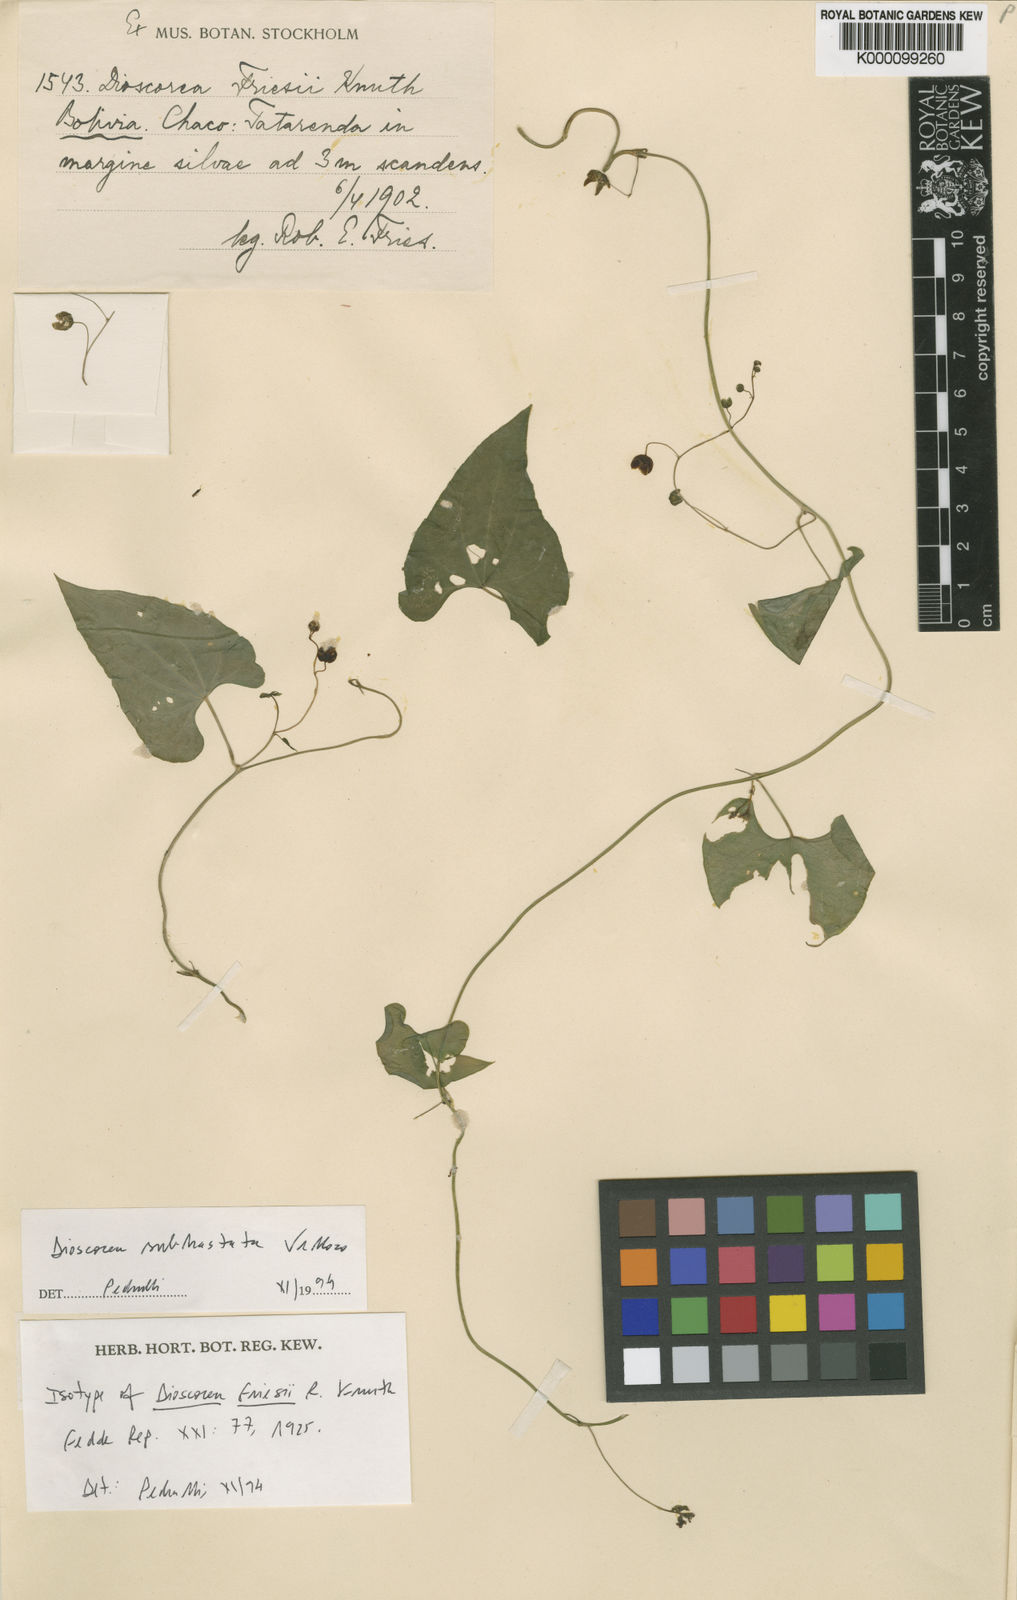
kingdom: Plantae
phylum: Tracheophyta
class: Liliopsida
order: Dioscoreales
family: Dioscoreaceae
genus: Dioscorea
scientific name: Dioscorea monadelpha
